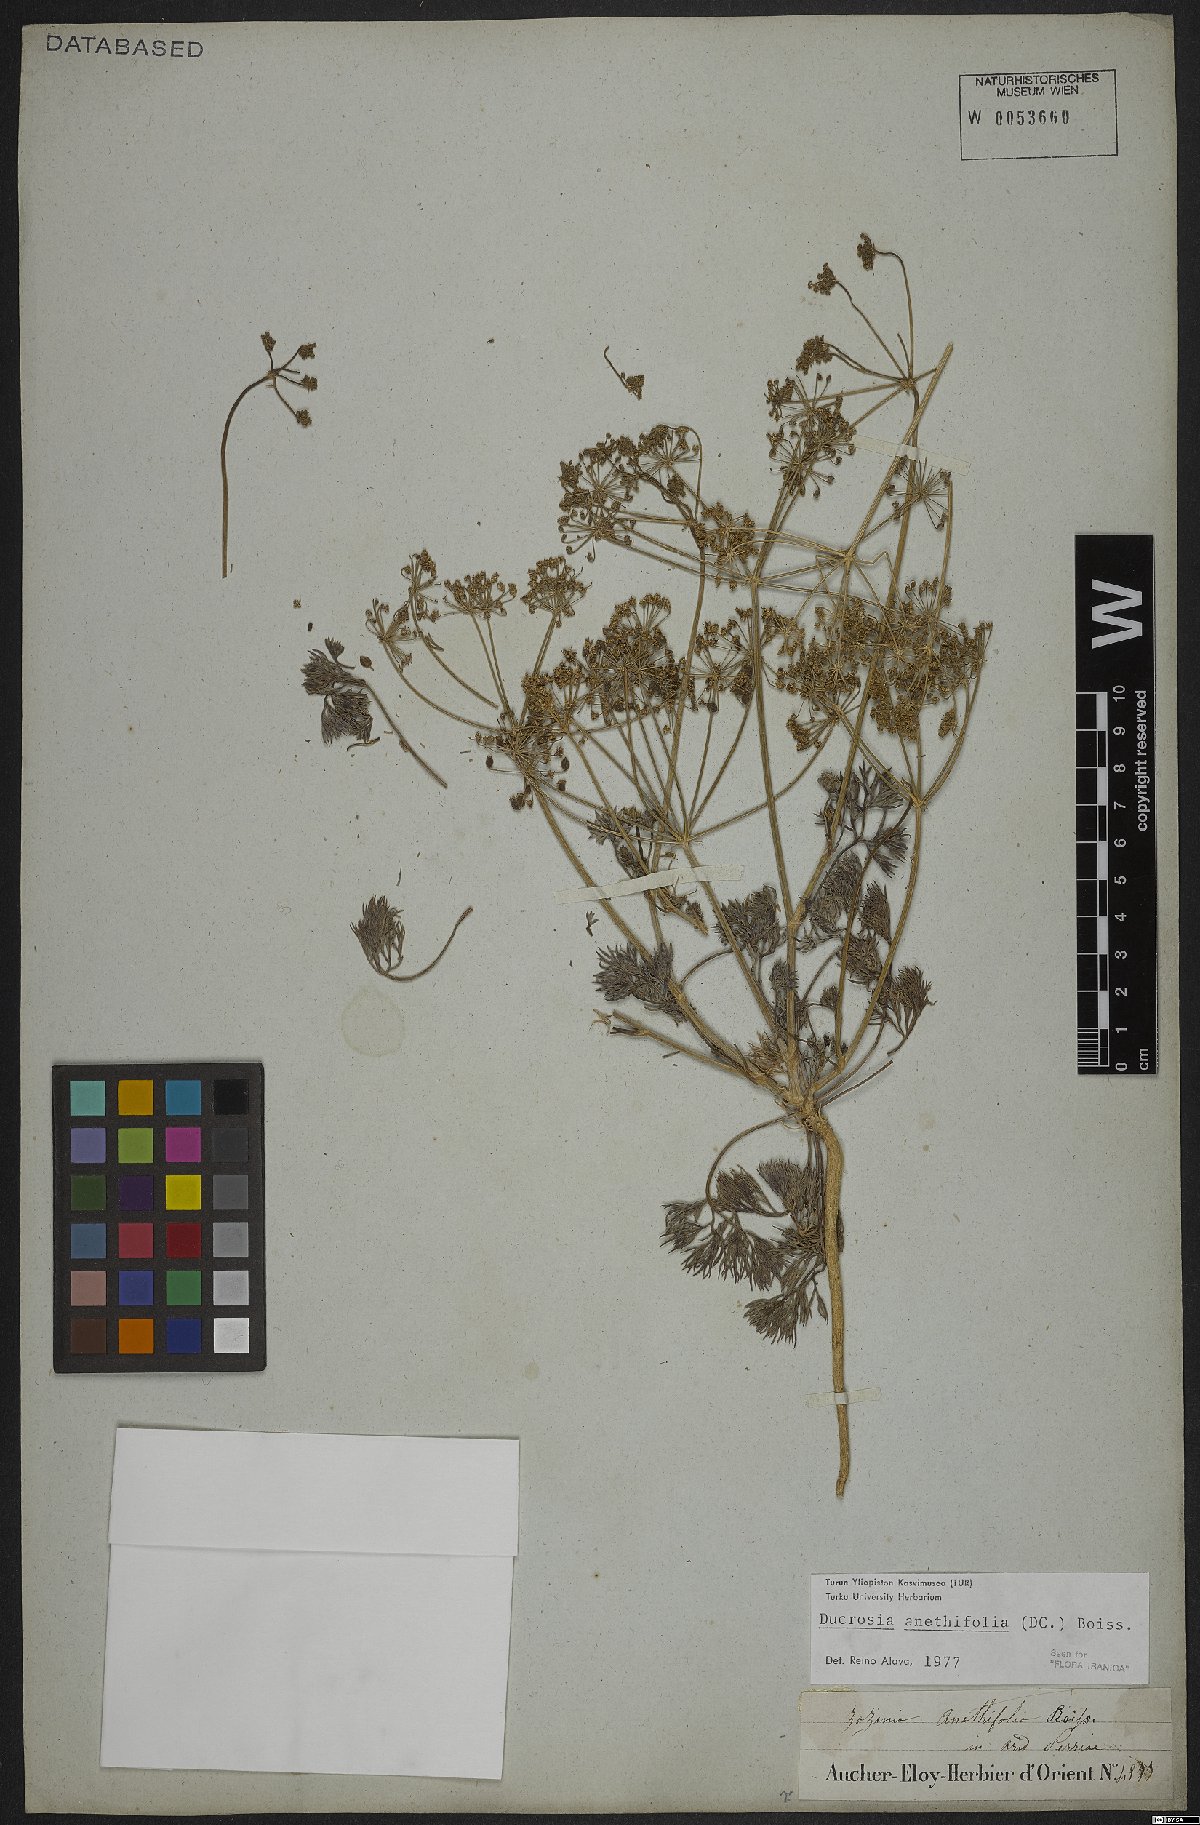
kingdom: Plantae
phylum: Tracheophyta
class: Magnoliopsida
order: Apiales
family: Apiaceae
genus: Ducrosia
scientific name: Ducrosia anethifolia
